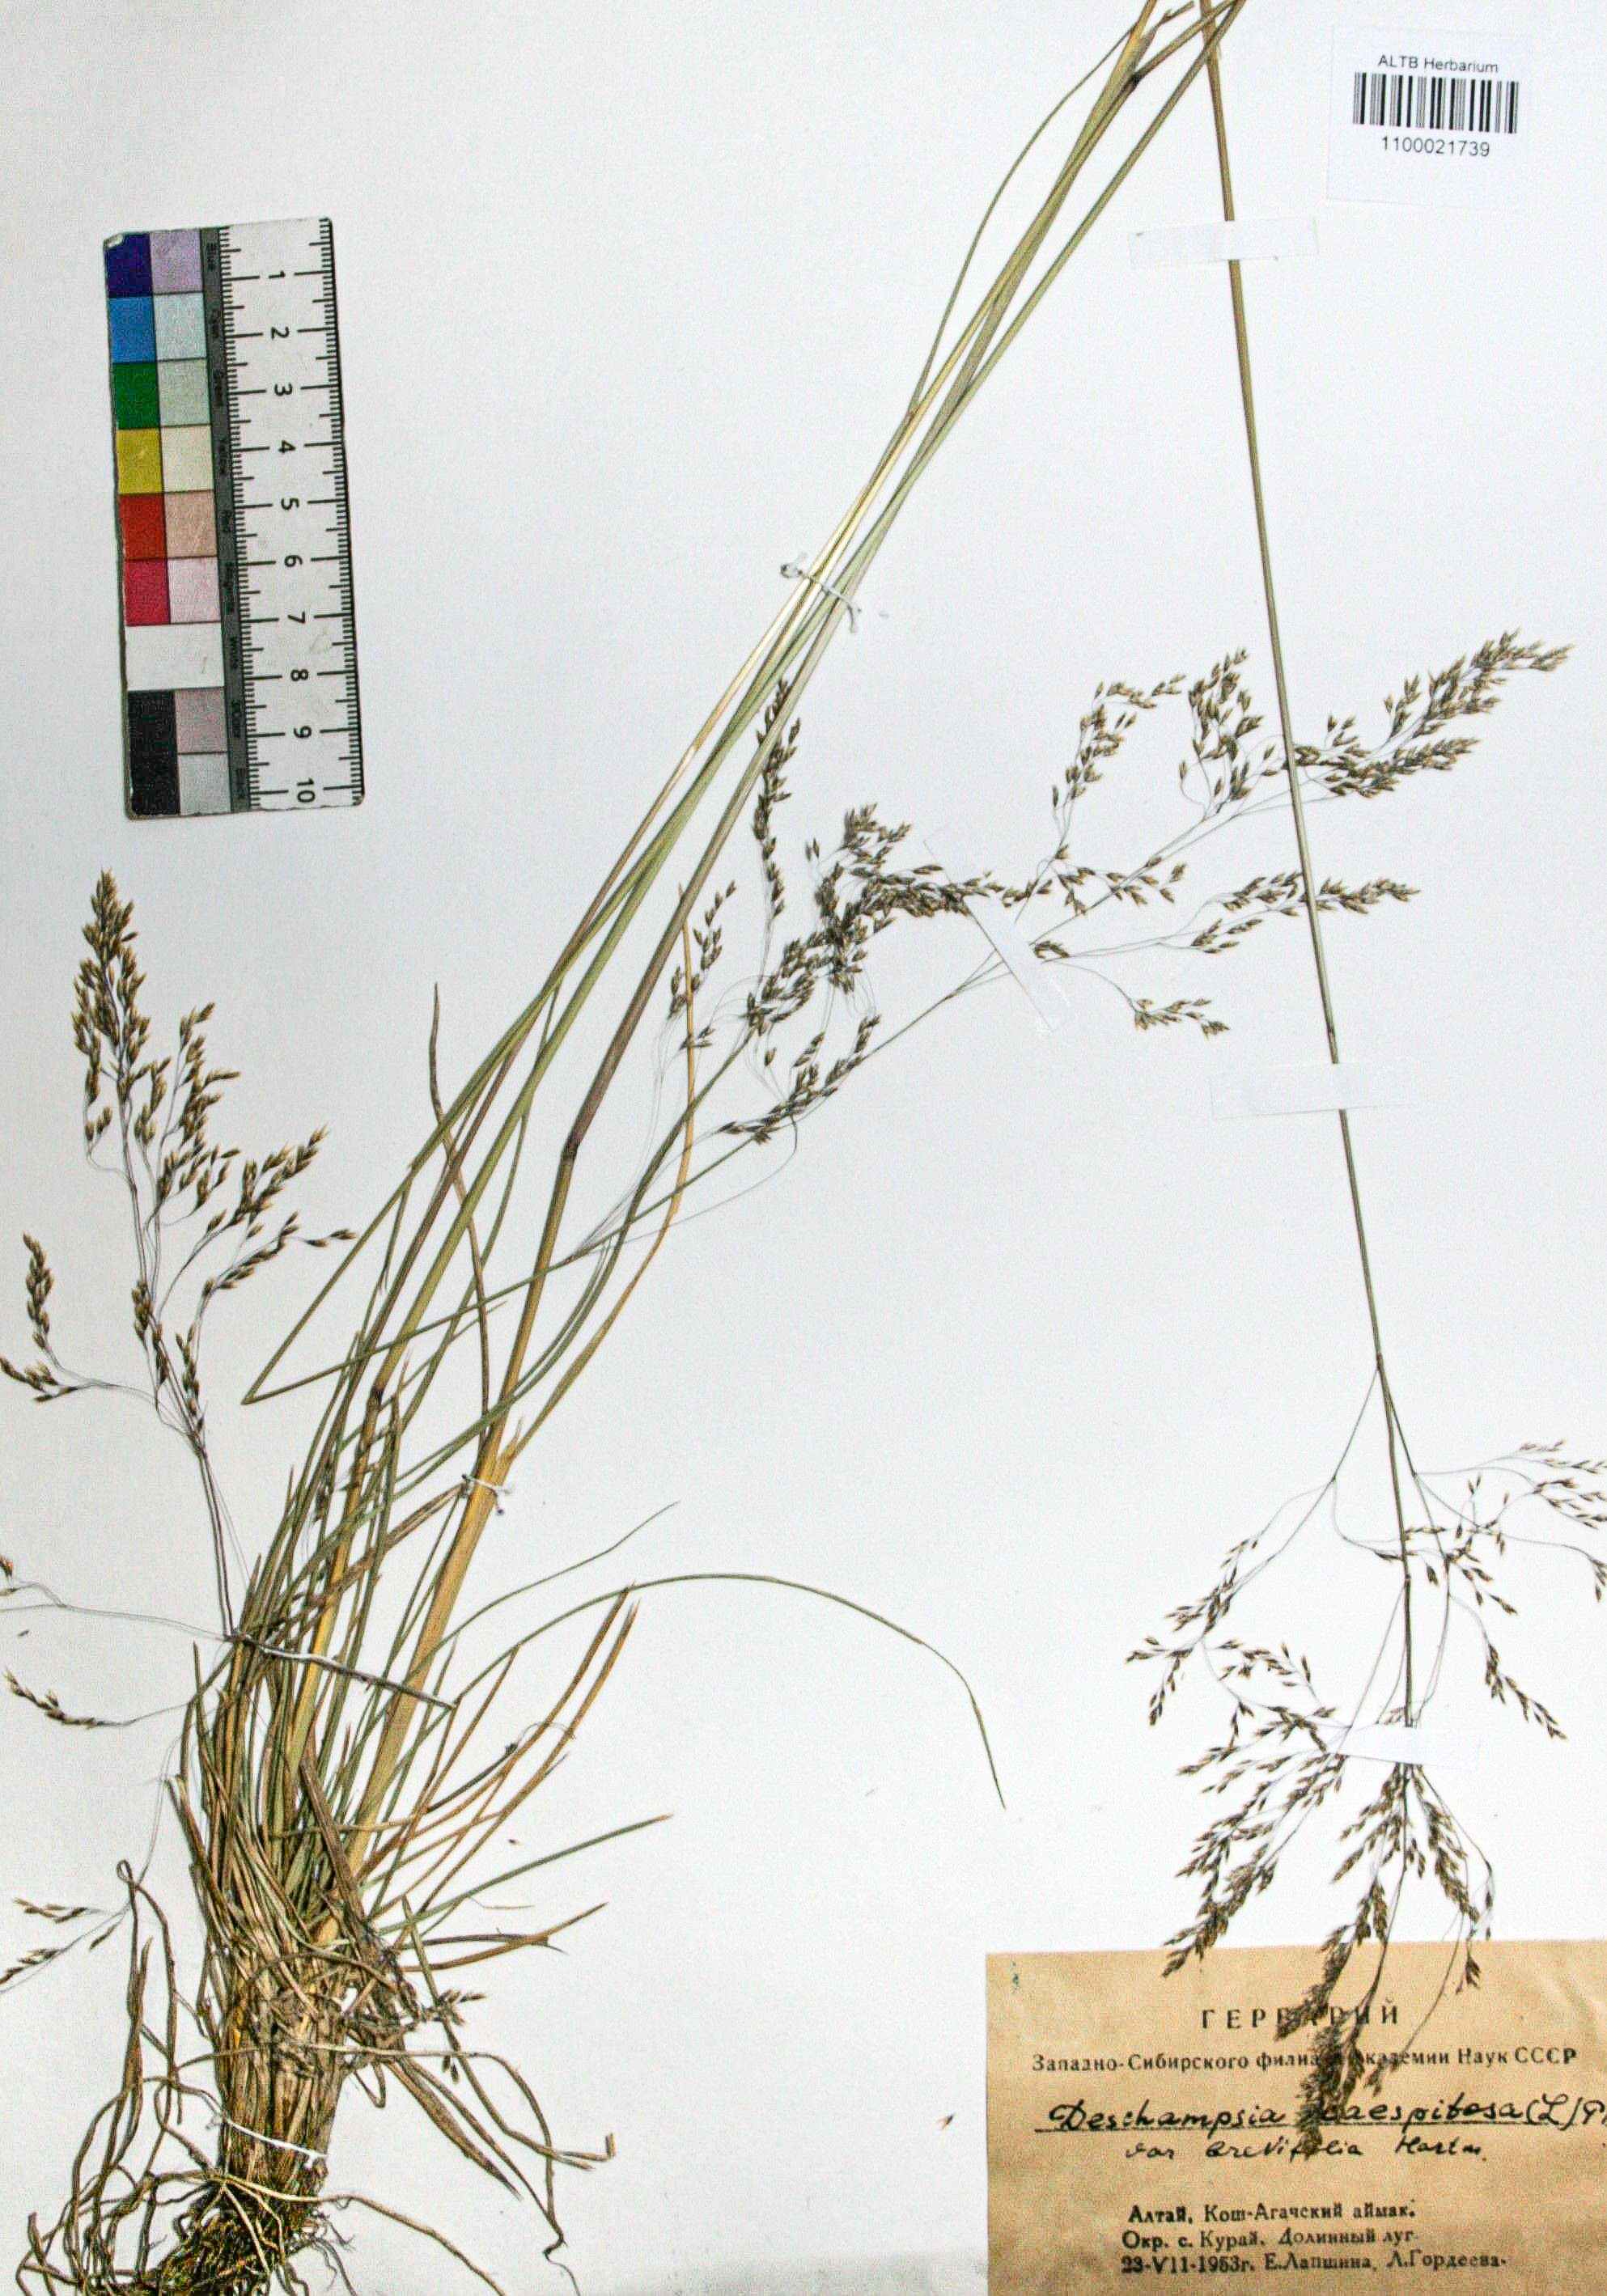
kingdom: Plantae
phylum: Tracheophyta
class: Liliopsida
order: Poales
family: Poaceae
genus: Deschampsia
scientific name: Deschampsia cespitosa
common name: Tufted hair-grass
